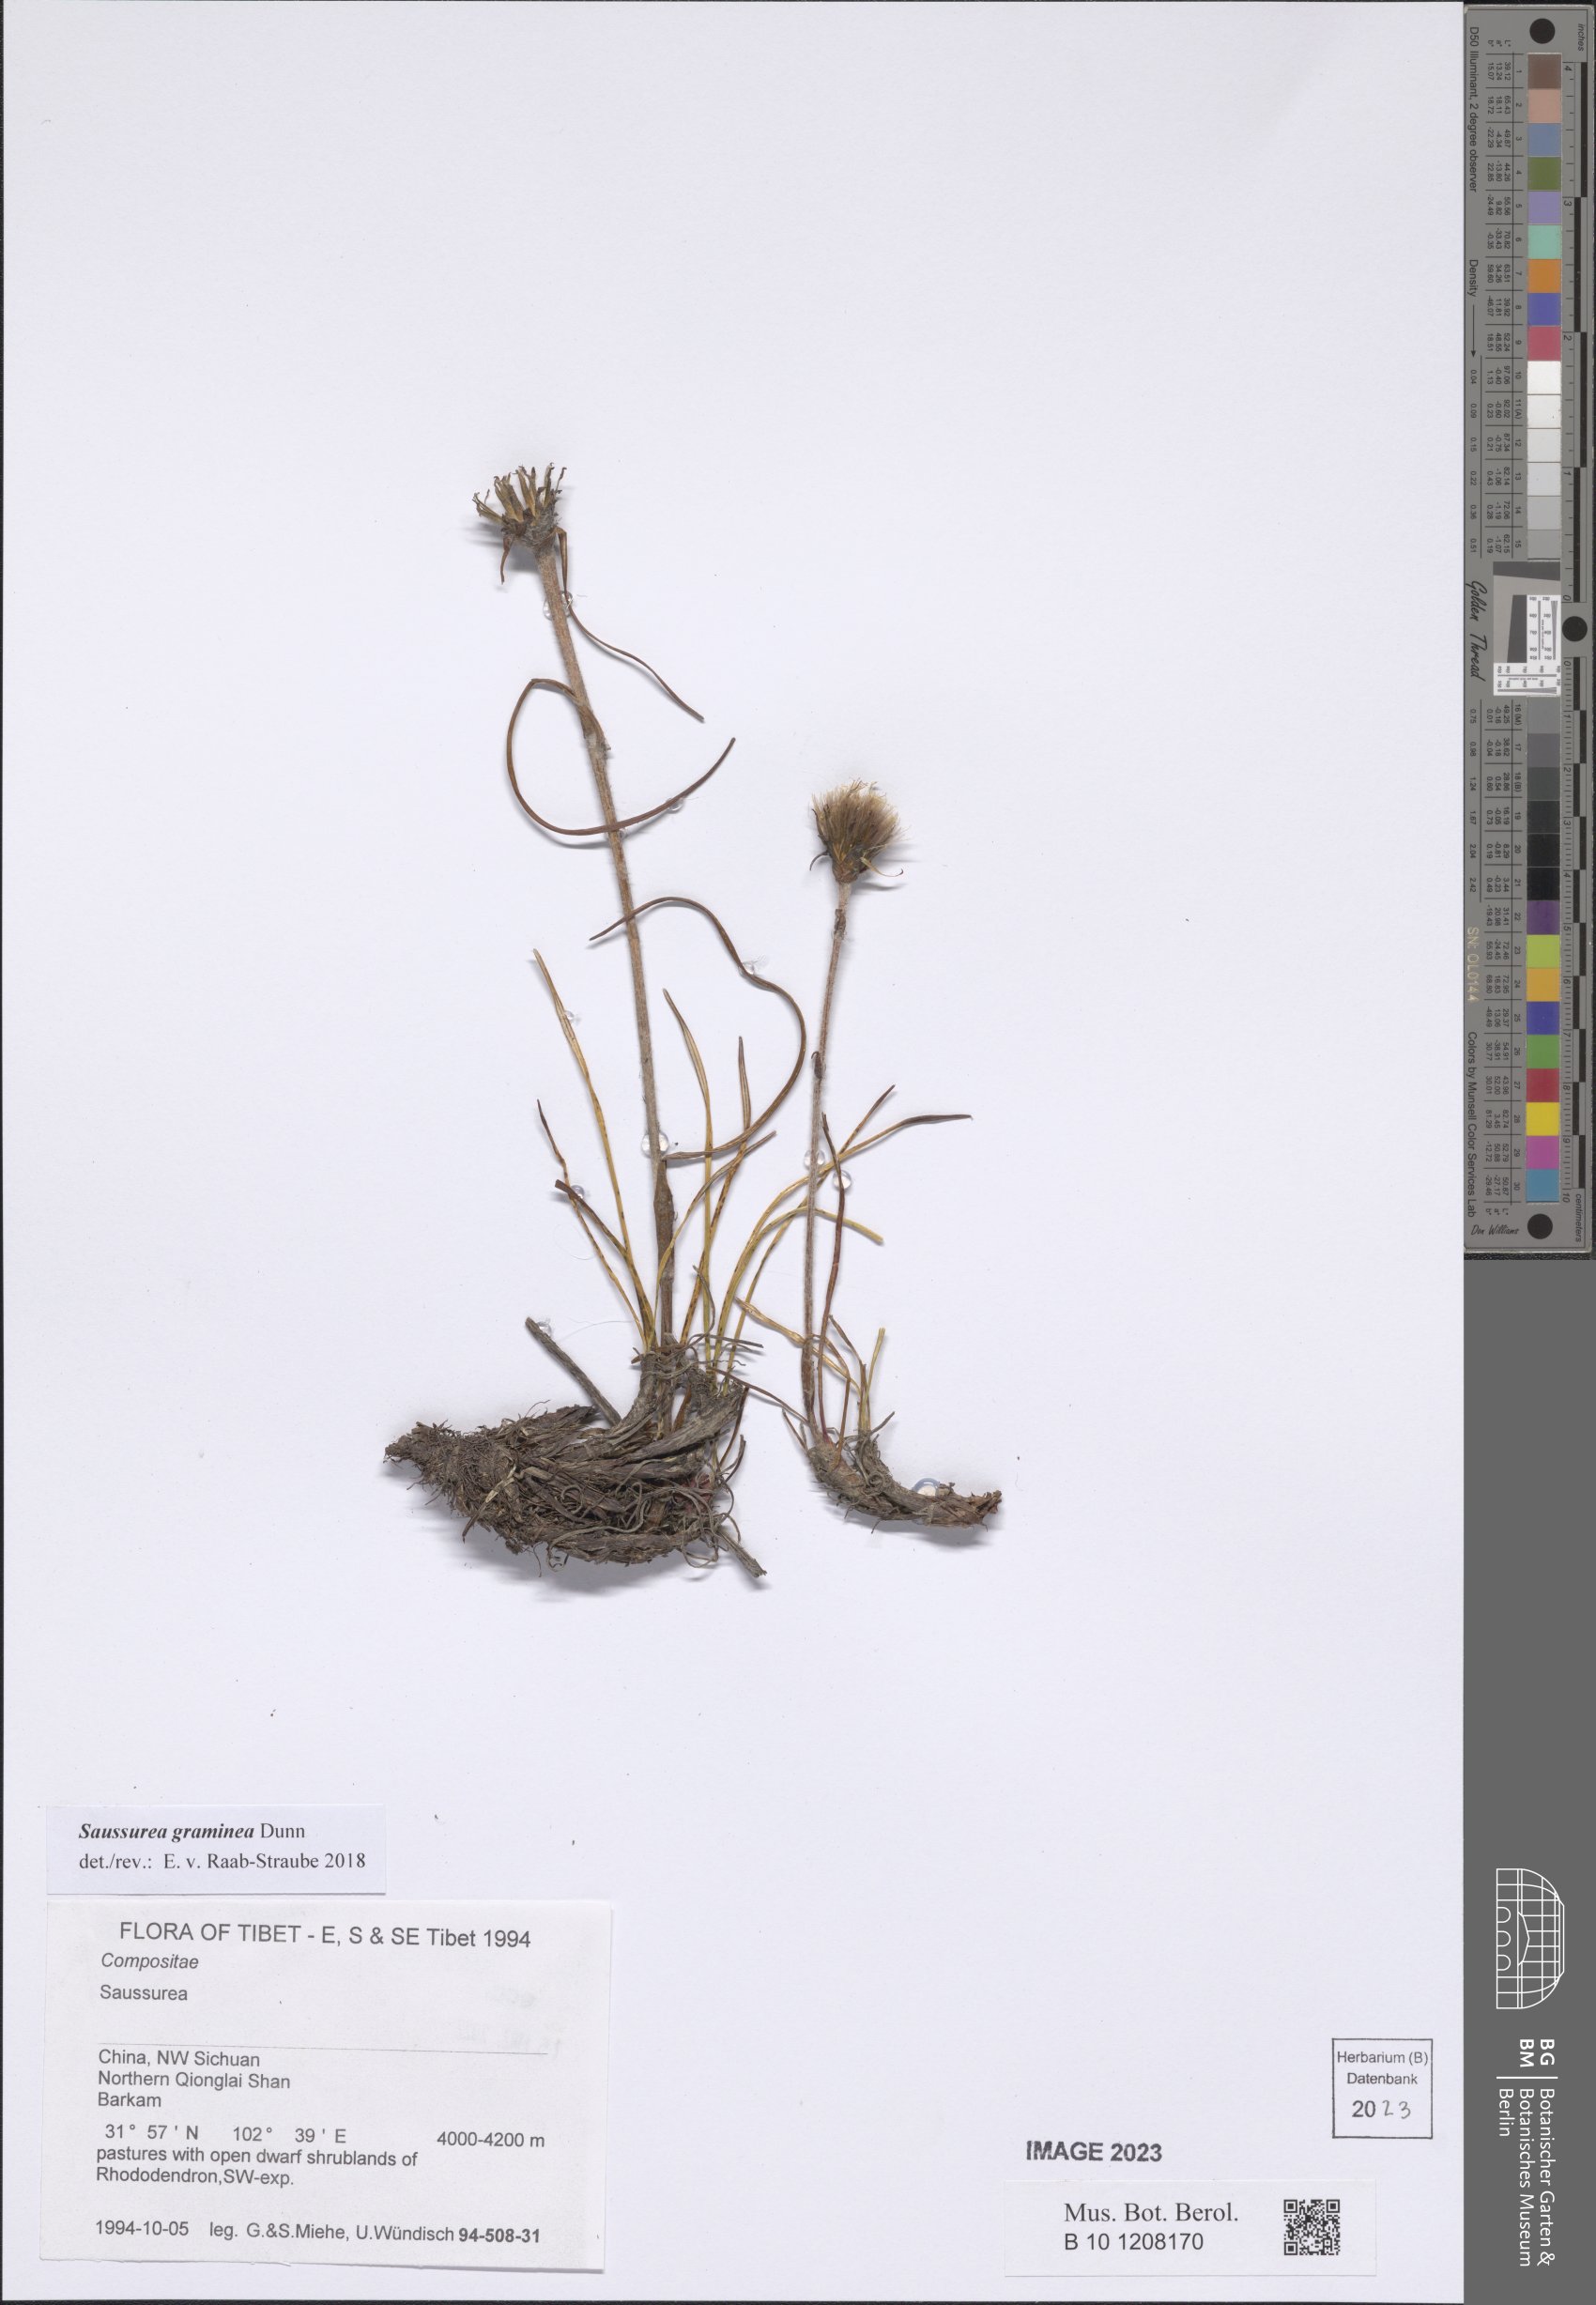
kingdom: Plantae
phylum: Tracheophyta
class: Magnoliopsida
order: Asterales
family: Asteraceae
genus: Saussurea
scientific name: Saussurea graminea
